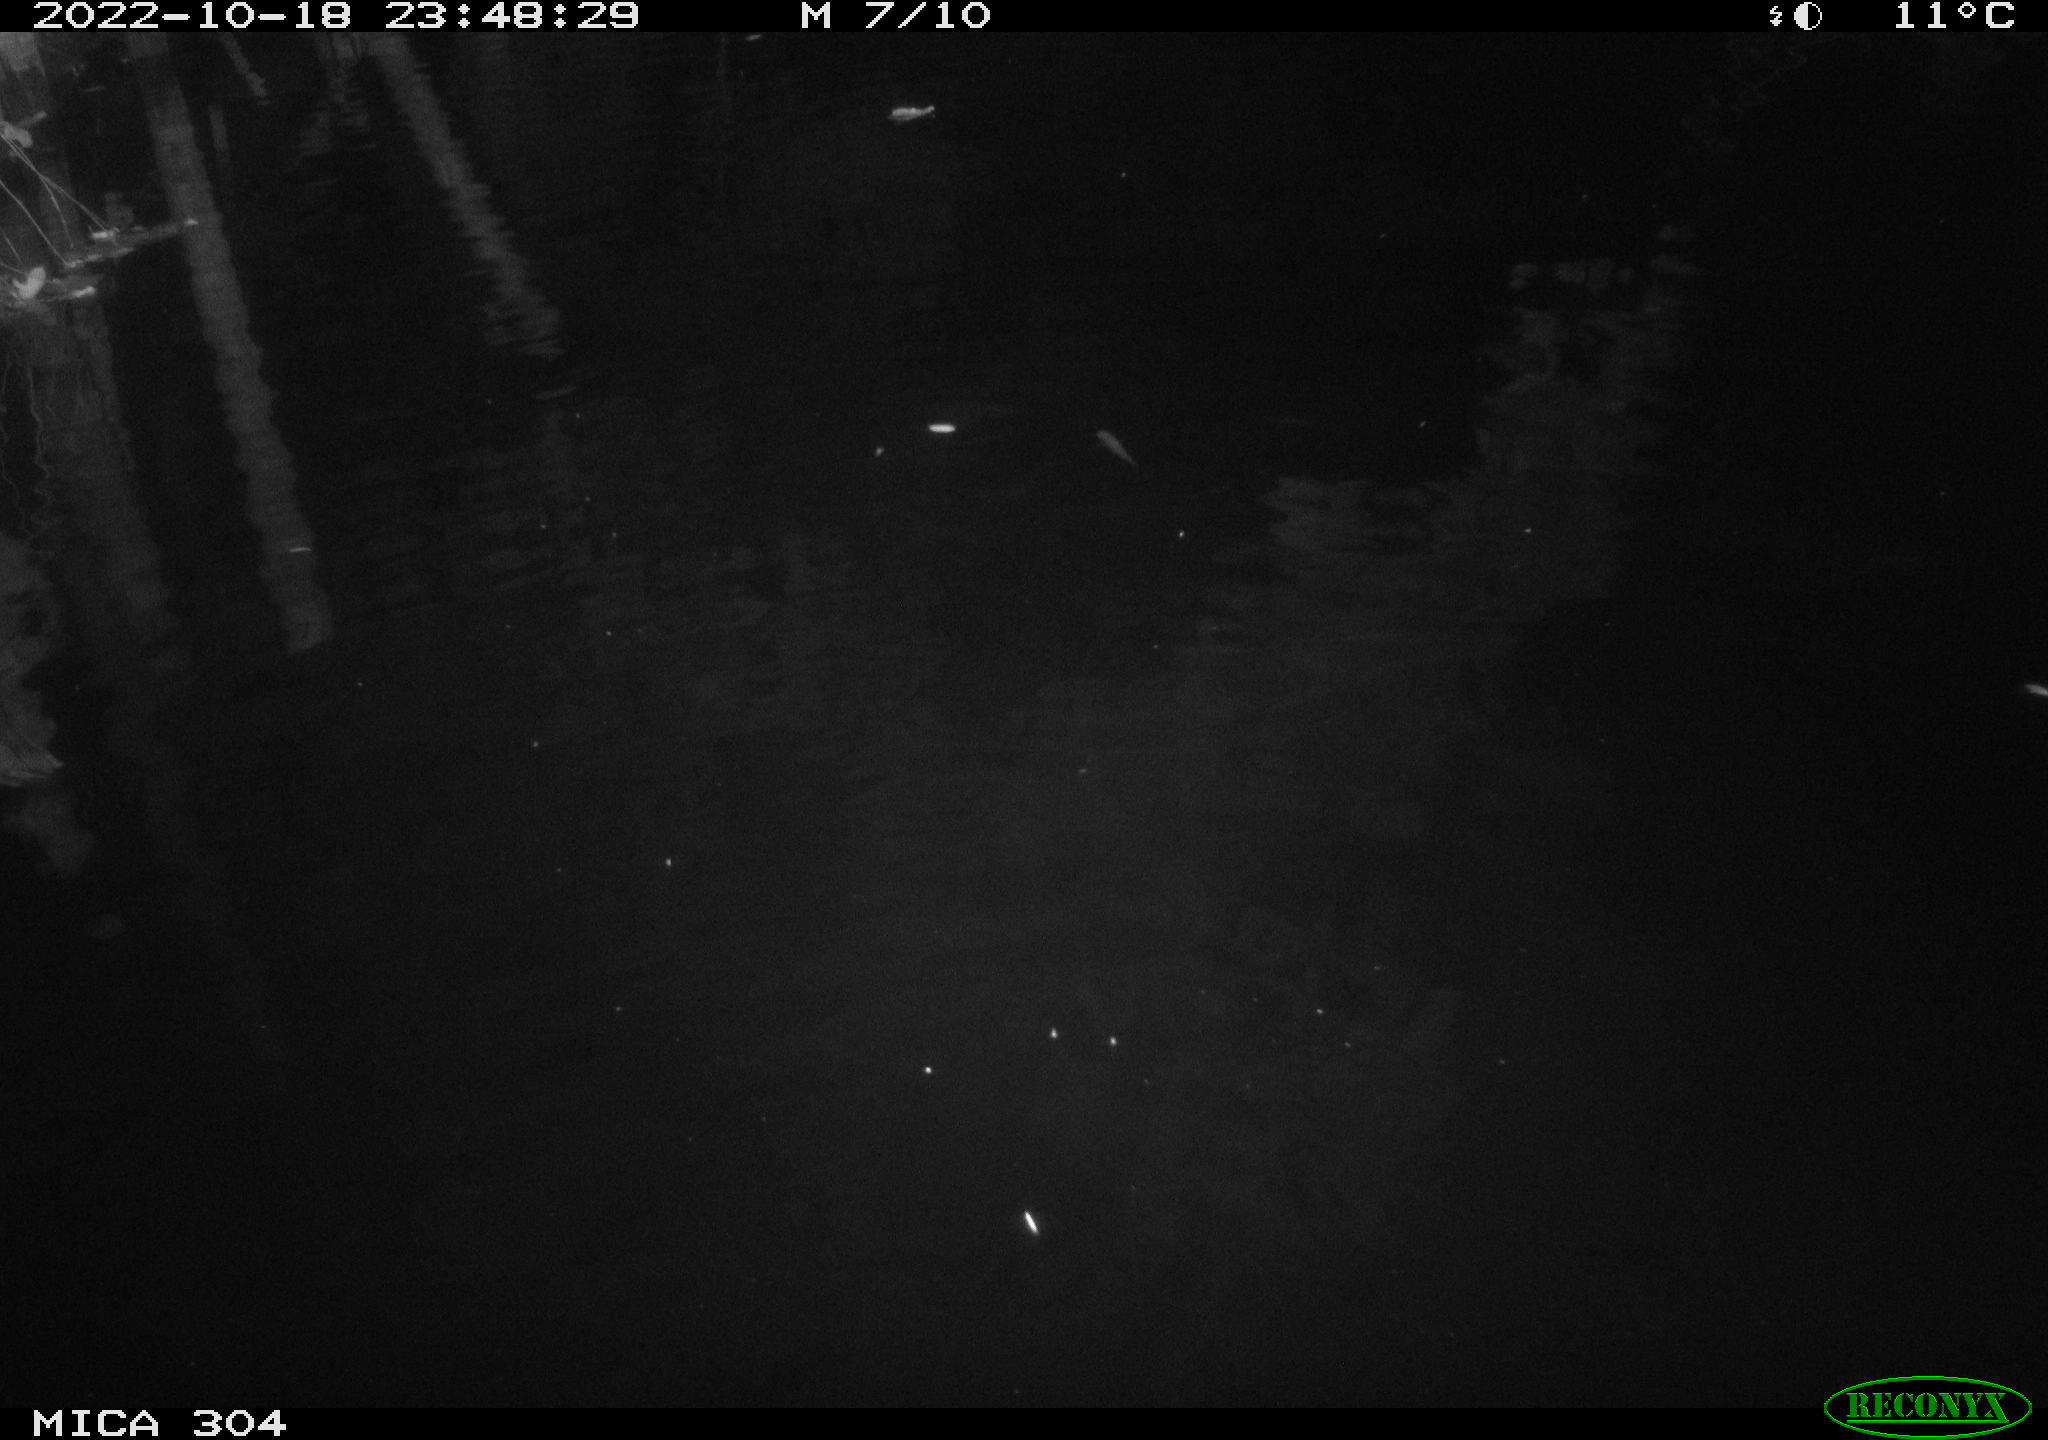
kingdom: Animalia
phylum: Chordata
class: Mammalia
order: Rodentia
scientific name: Rodentia
